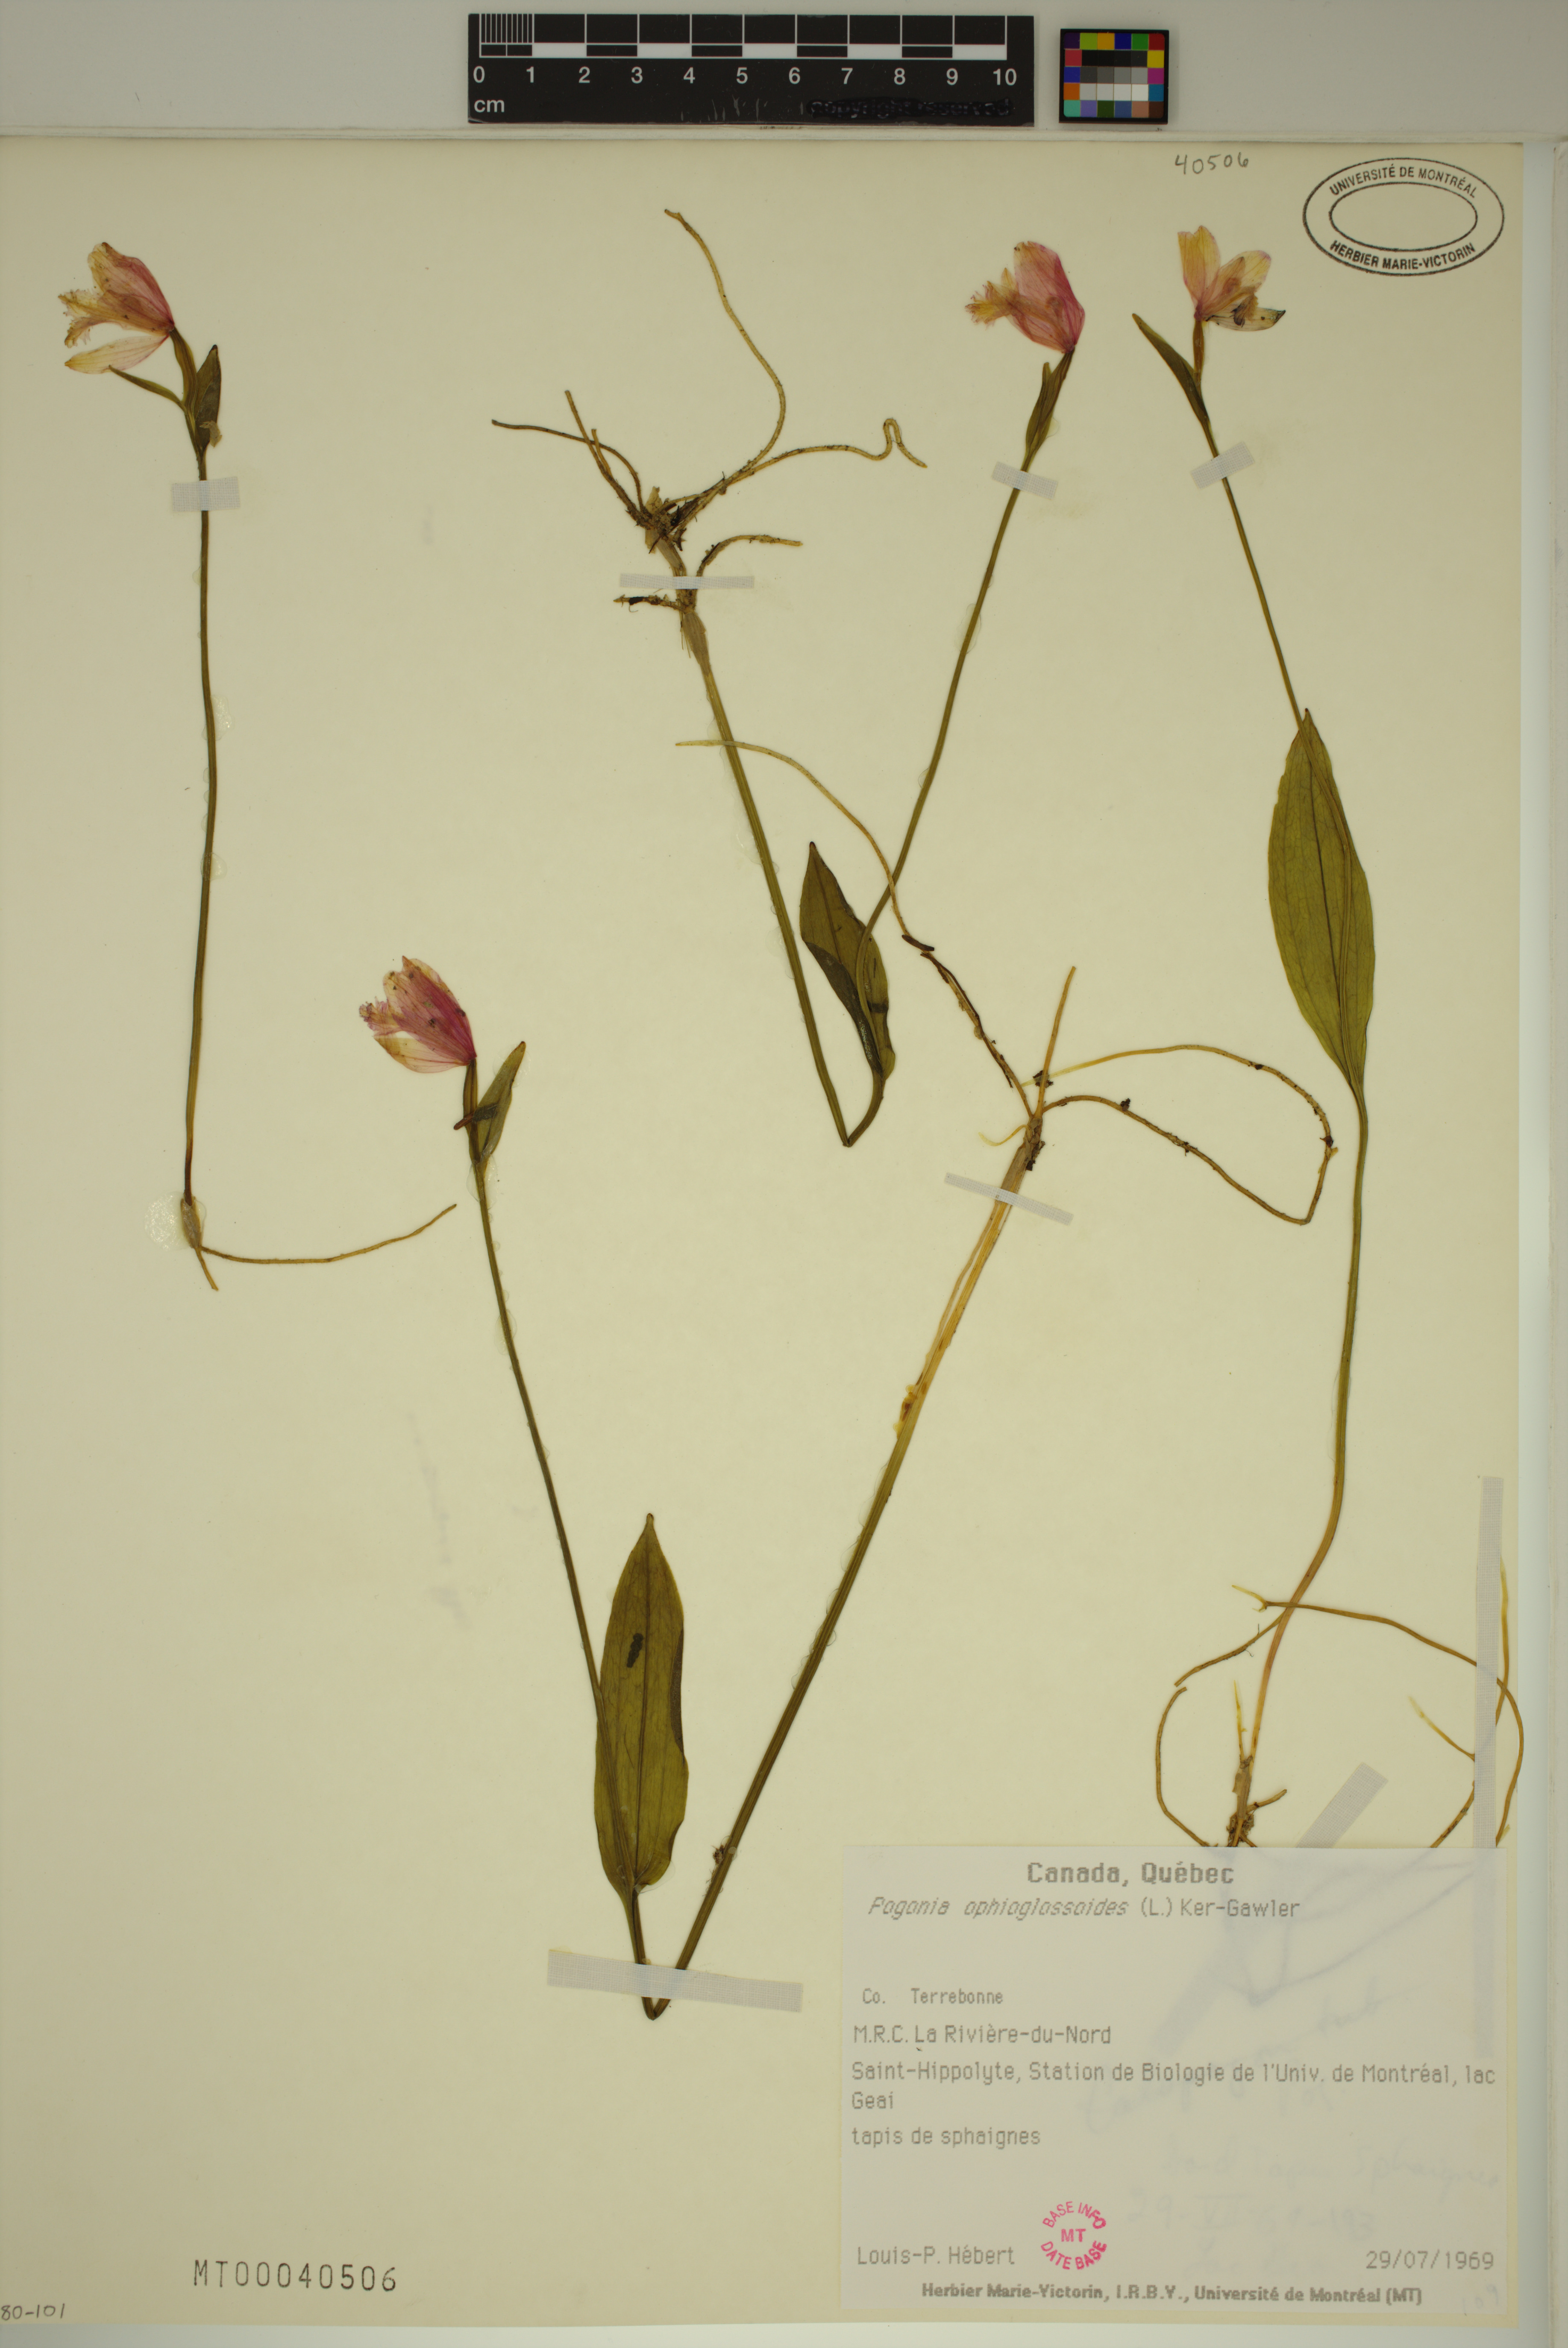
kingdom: Plantae
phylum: Tracheophyta
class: Liliopsida
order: Asparagales
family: Orchidaceae
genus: Pogonia
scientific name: Pogonia ophioglossoides
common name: Rose pogonia
